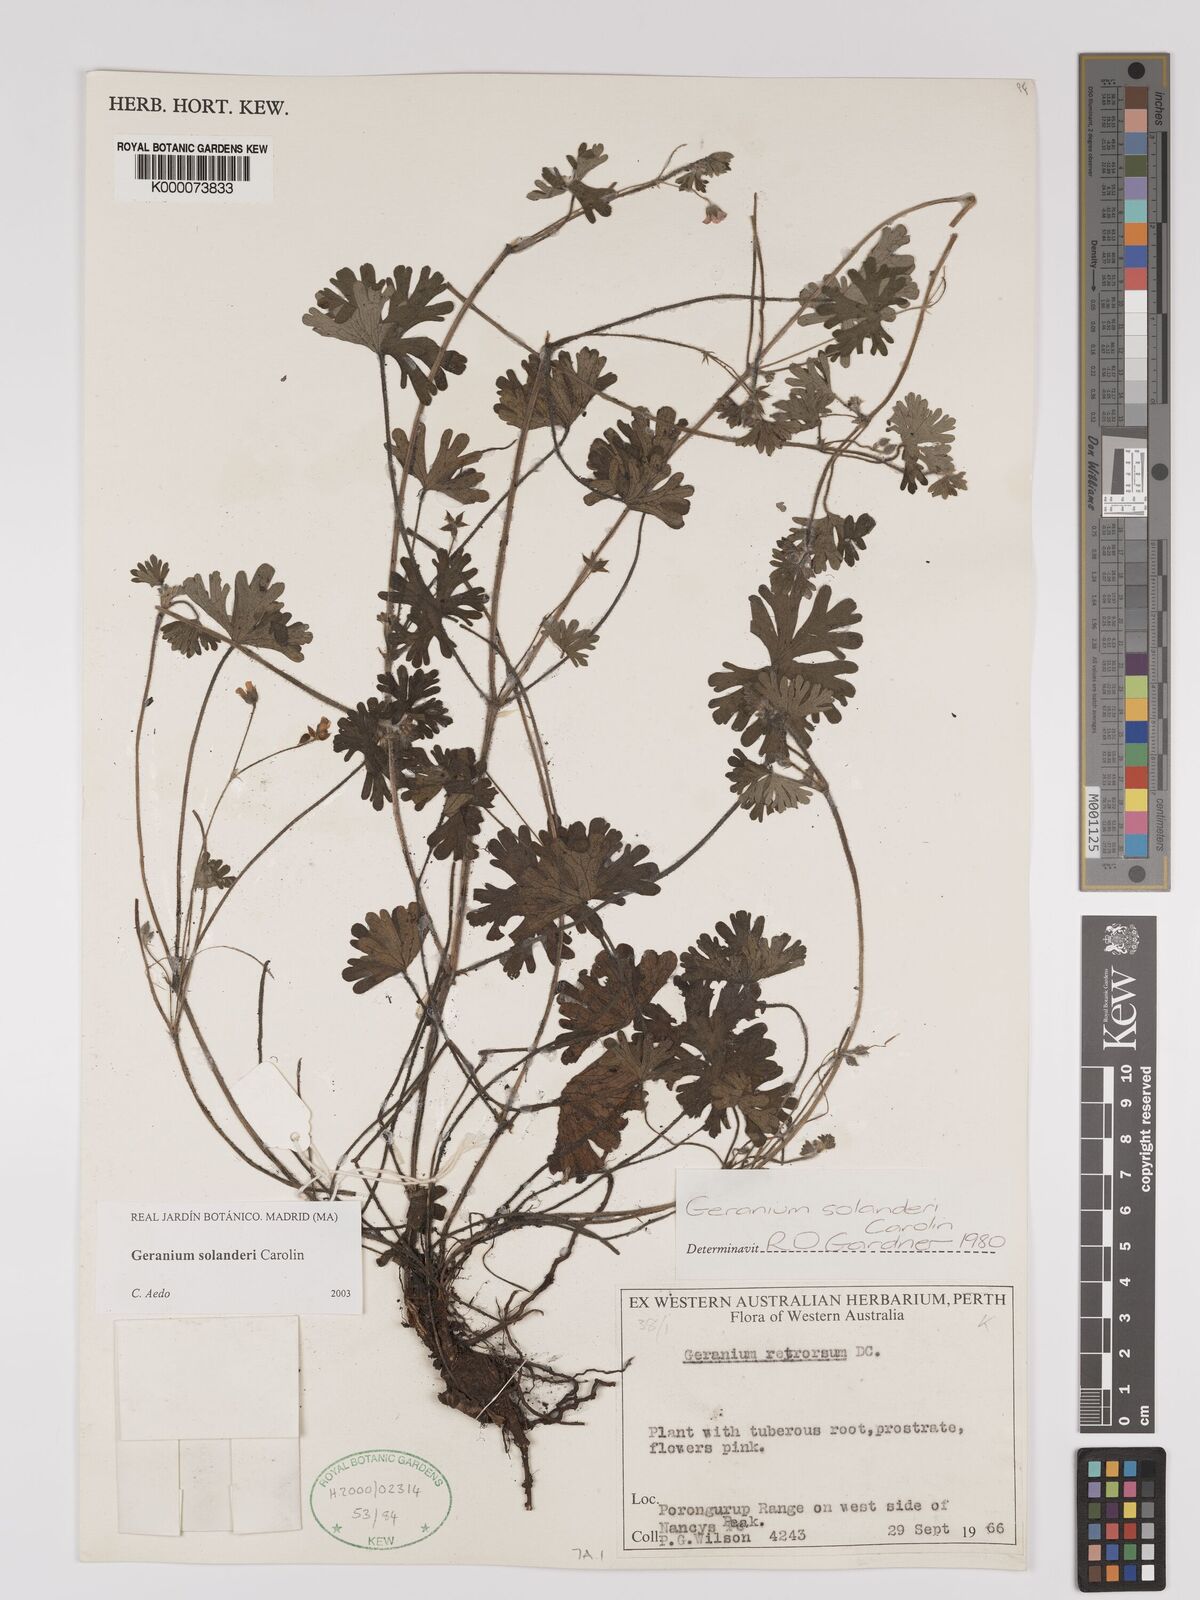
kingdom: Plantae
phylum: Tracheophyta
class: Magnoliopsida
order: Geraniales
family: Geraniaceae
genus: Geranium
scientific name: Geranium solanderi
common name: Solander's geranium
